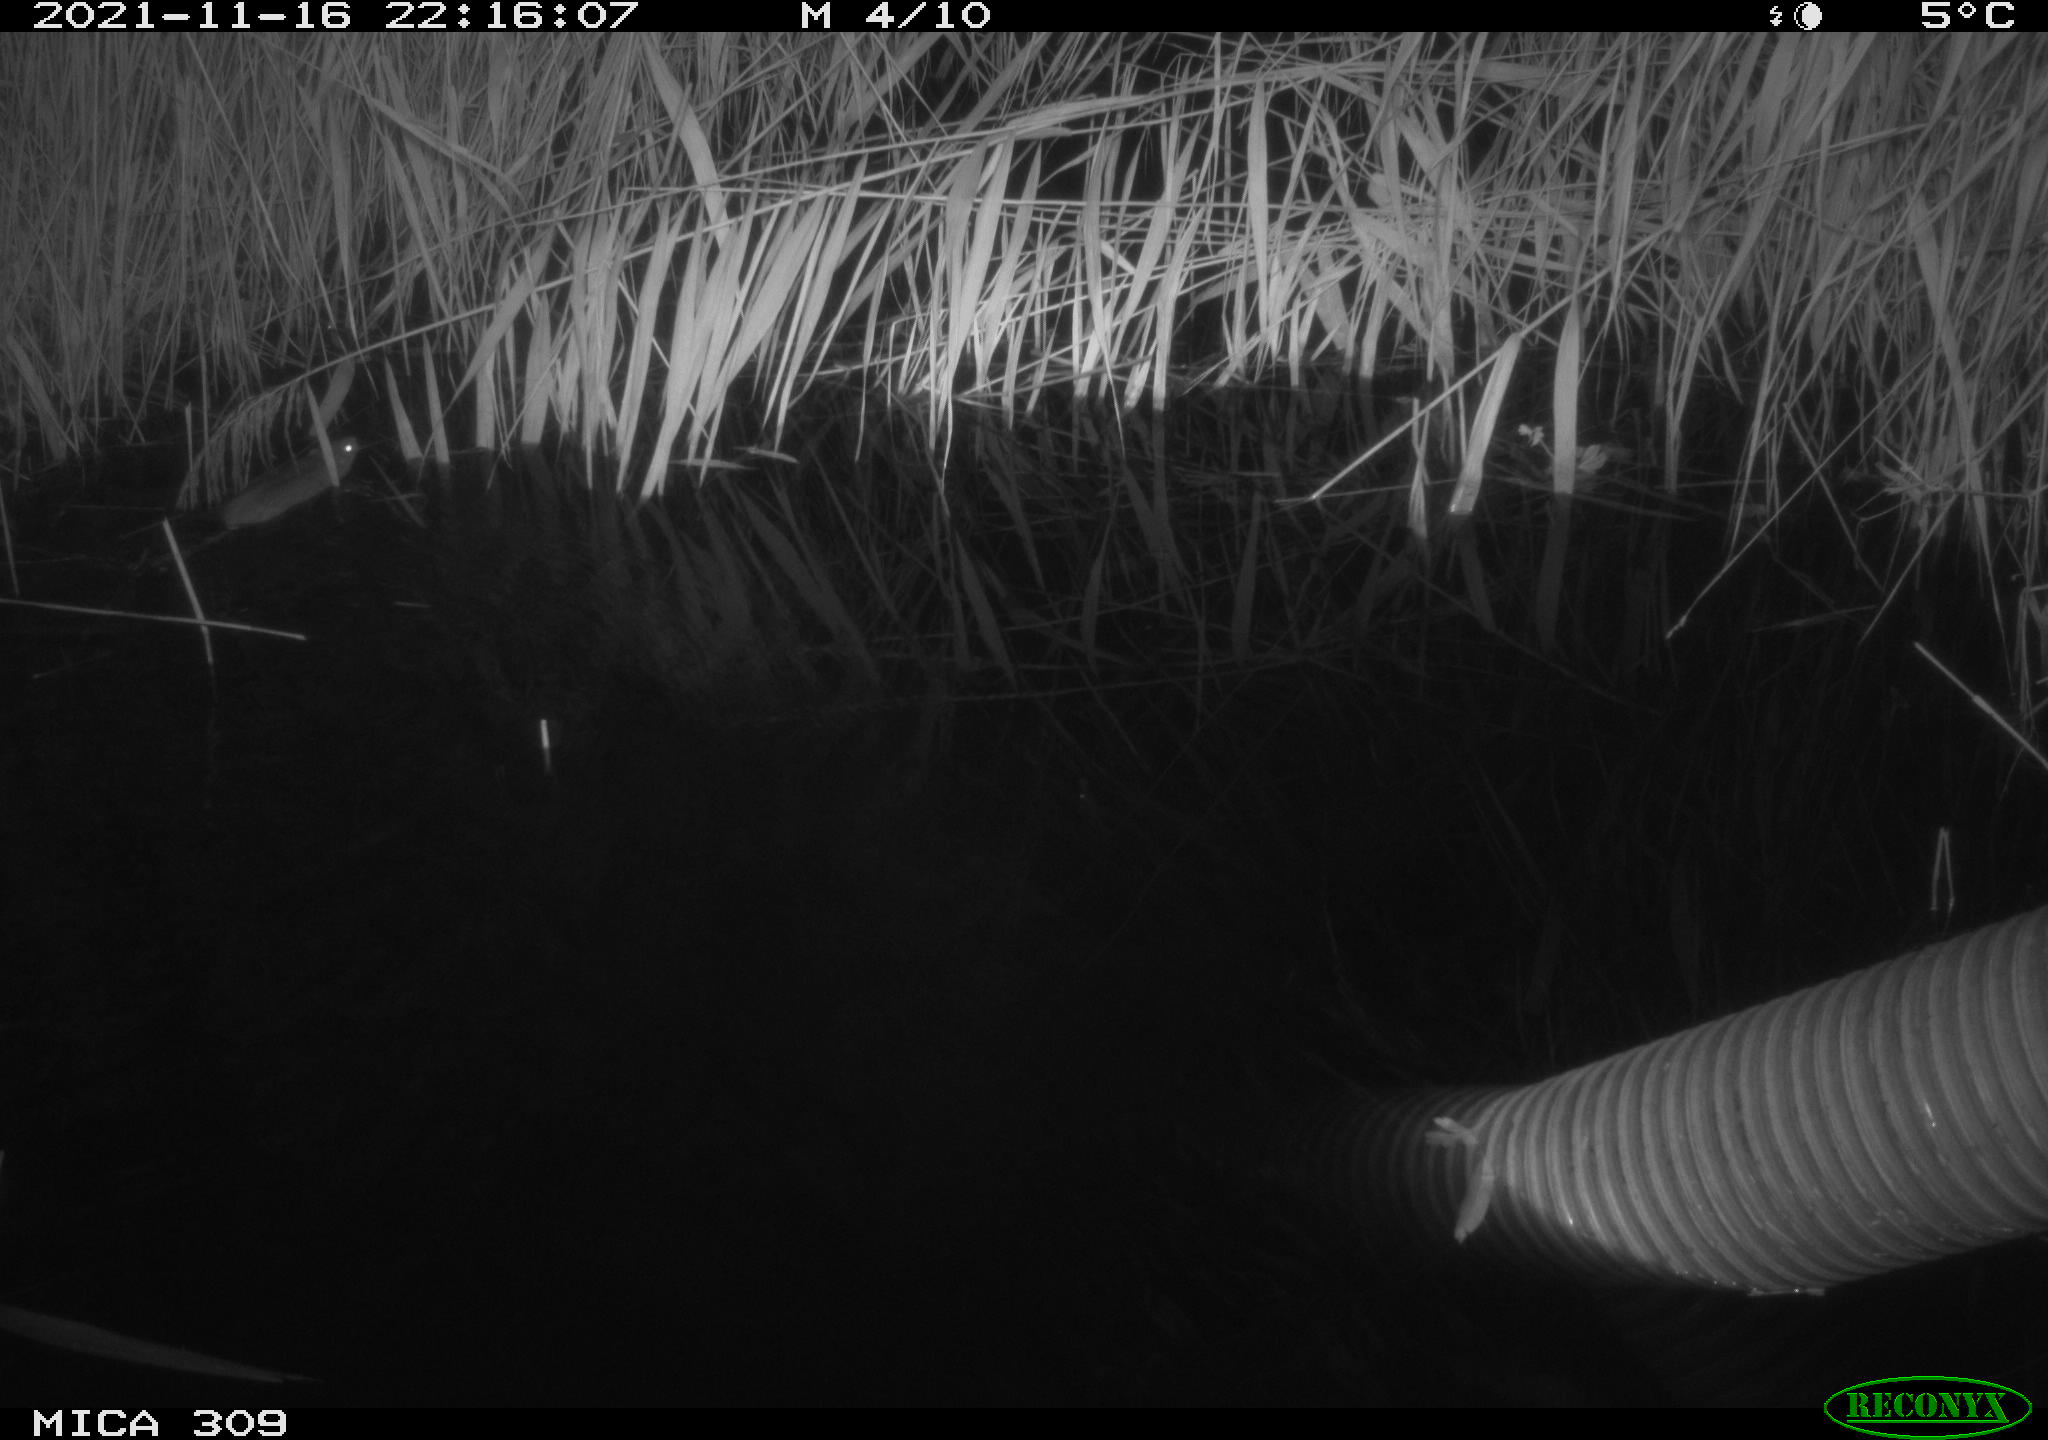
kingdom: Animalia
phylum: Chordata
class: Mammalia
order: Rodentia
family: Muridae
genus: Rattus
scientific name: Rattus norvegicus
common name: Brown rat
